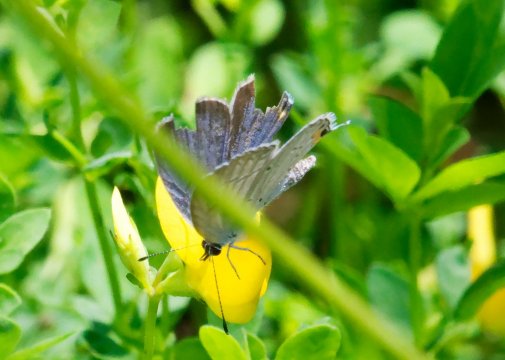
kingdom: Animalia
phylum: Arthropoda
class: Insecta
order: Lepidoptera
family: Lycaenidae
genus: Elkalyce
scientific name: Elkalyce comyntas
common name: Eastern Tailed-Blue
